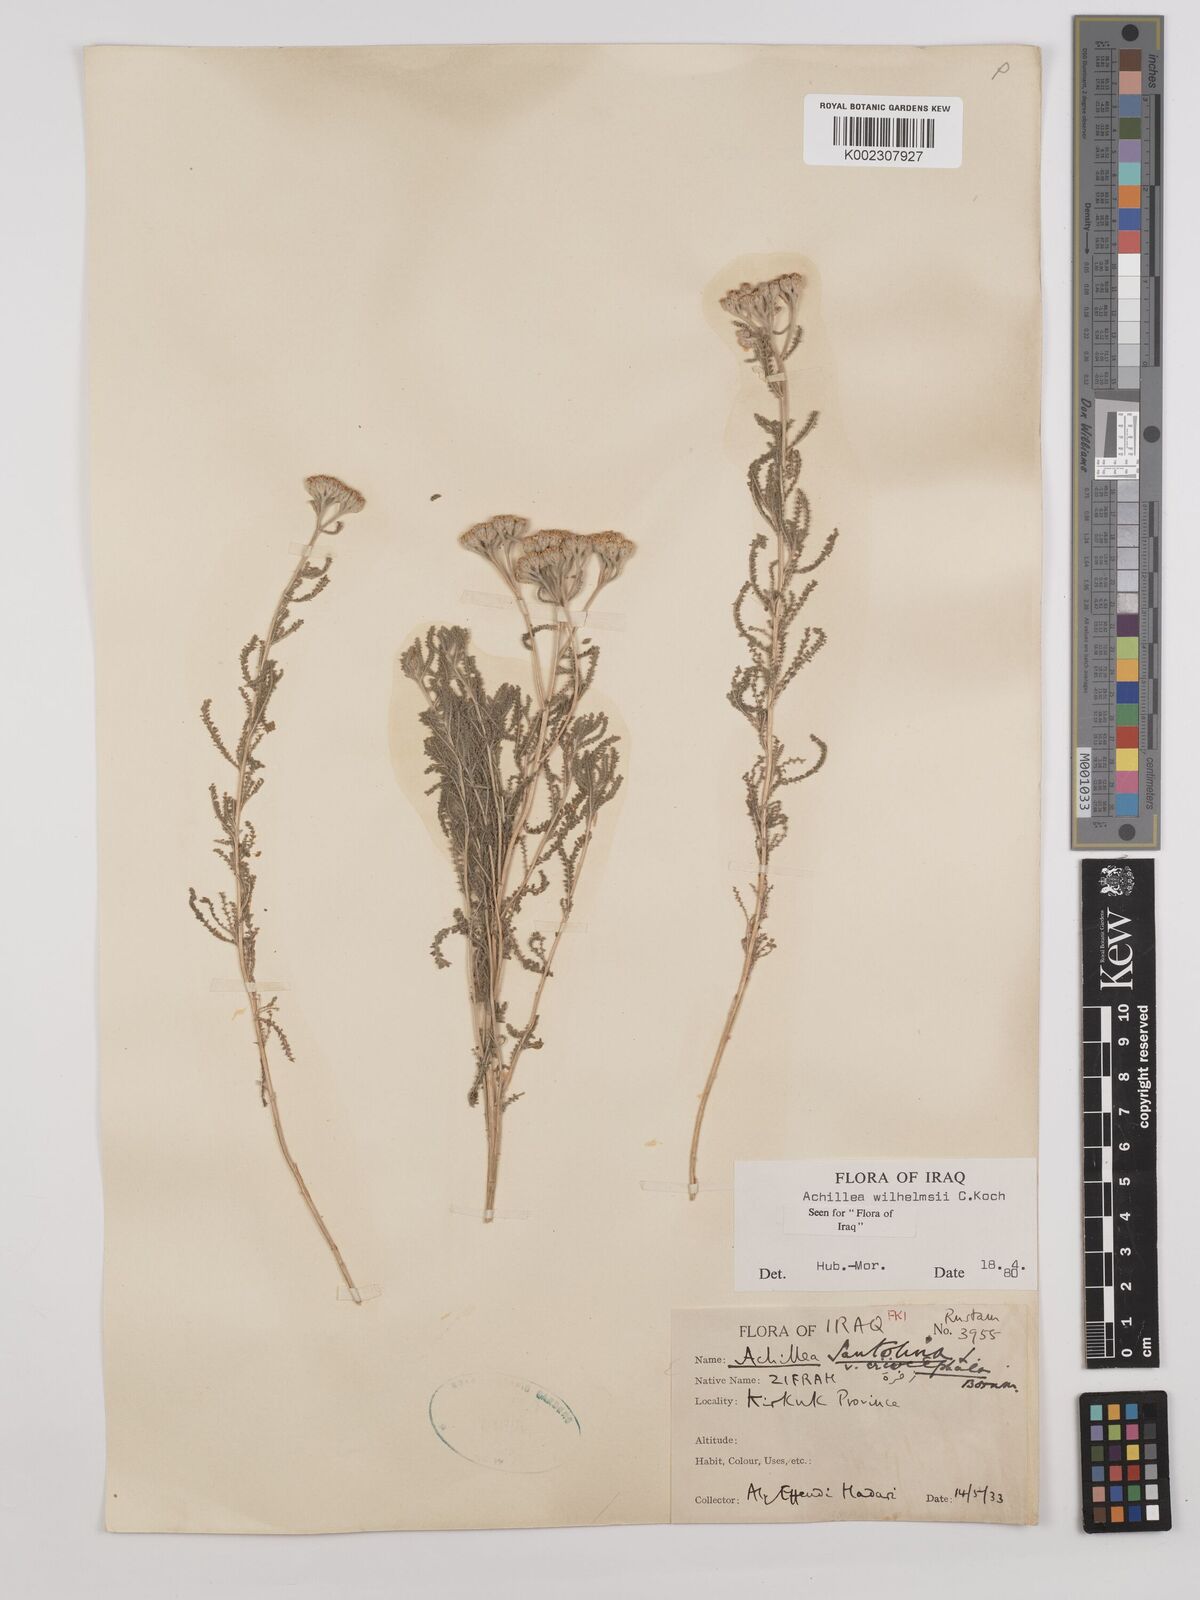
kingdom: Plantae
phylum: Tracheophyta
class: Magnoliopsida
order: Asterales
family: Asteraceae
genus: Achillea
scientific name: Achillea wilhelmsii
